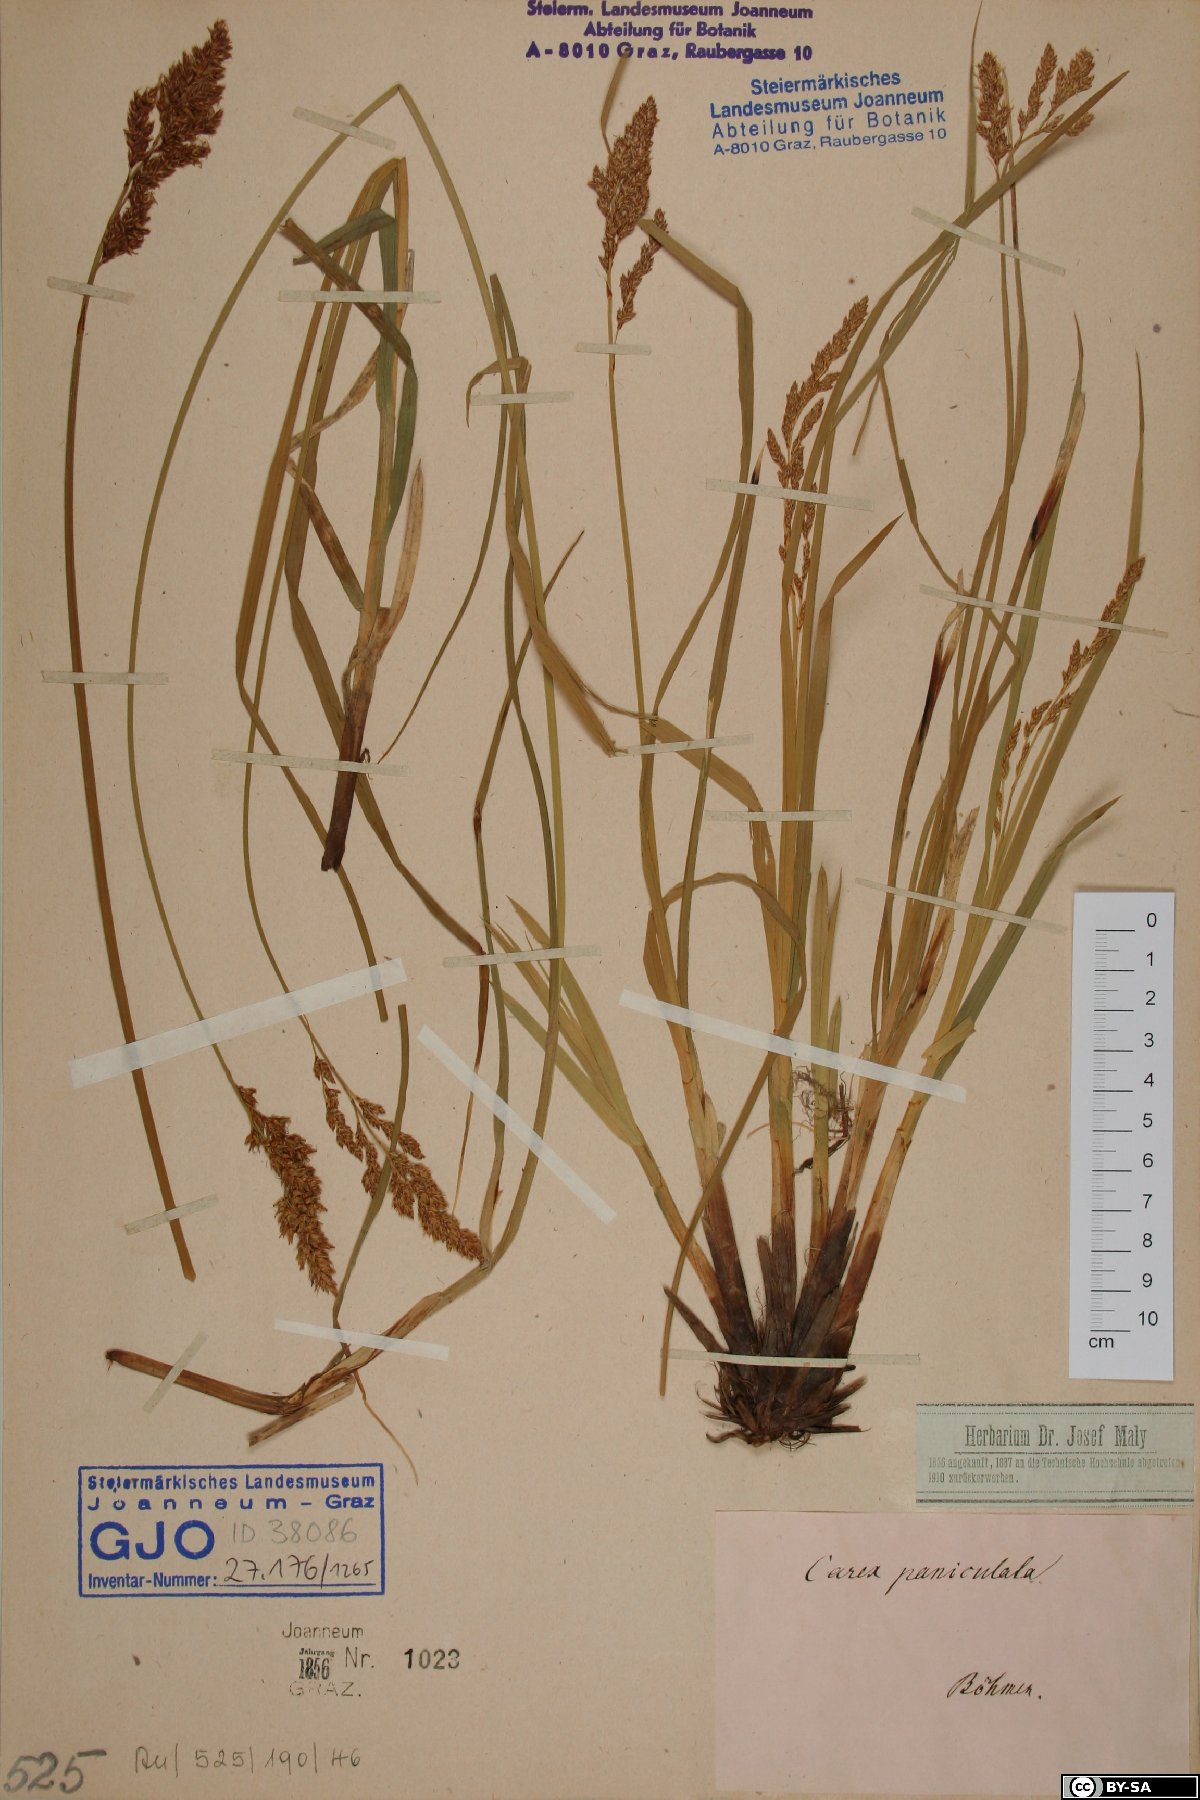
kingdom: Plantae
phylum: Tracheophyta
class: Liliopsida
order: Poales
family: Cyperaceae
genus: Carex
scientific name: Carex paniculata
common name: Greater tussock-sedge
